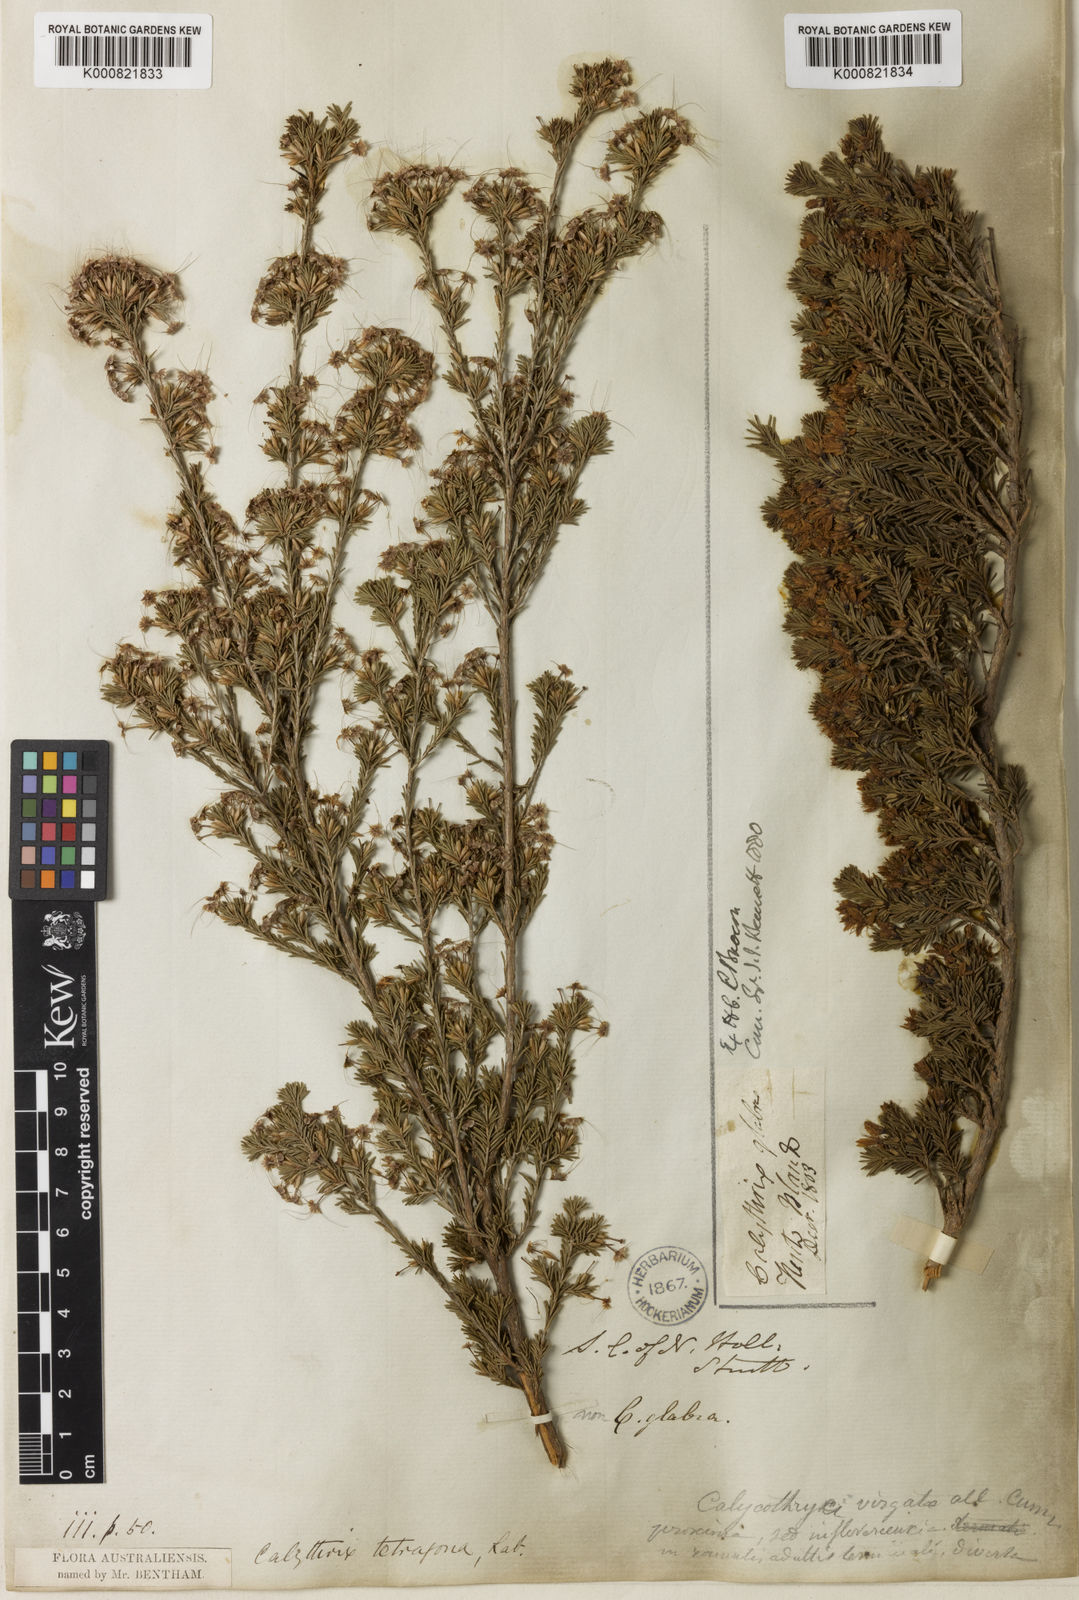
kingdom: Plantae
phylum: Tracheophyta
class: Magnoliopsida
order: Myrtales
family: Myrtaceae
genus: Calytrix
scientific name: Calytrix tetragona
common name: Common fringe myrtle
